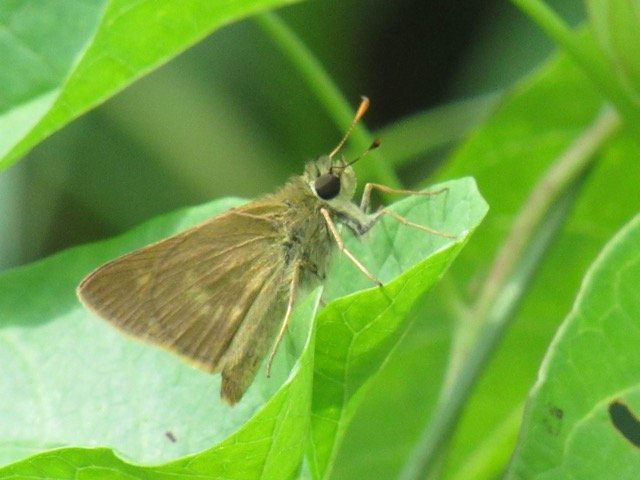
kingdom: Animalia
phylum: Arthropoda
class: Insecta
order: Lepidoptera
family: Hesperiidae
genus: Polites
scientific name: Polites egeremet
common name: Northern Broken-Dash
